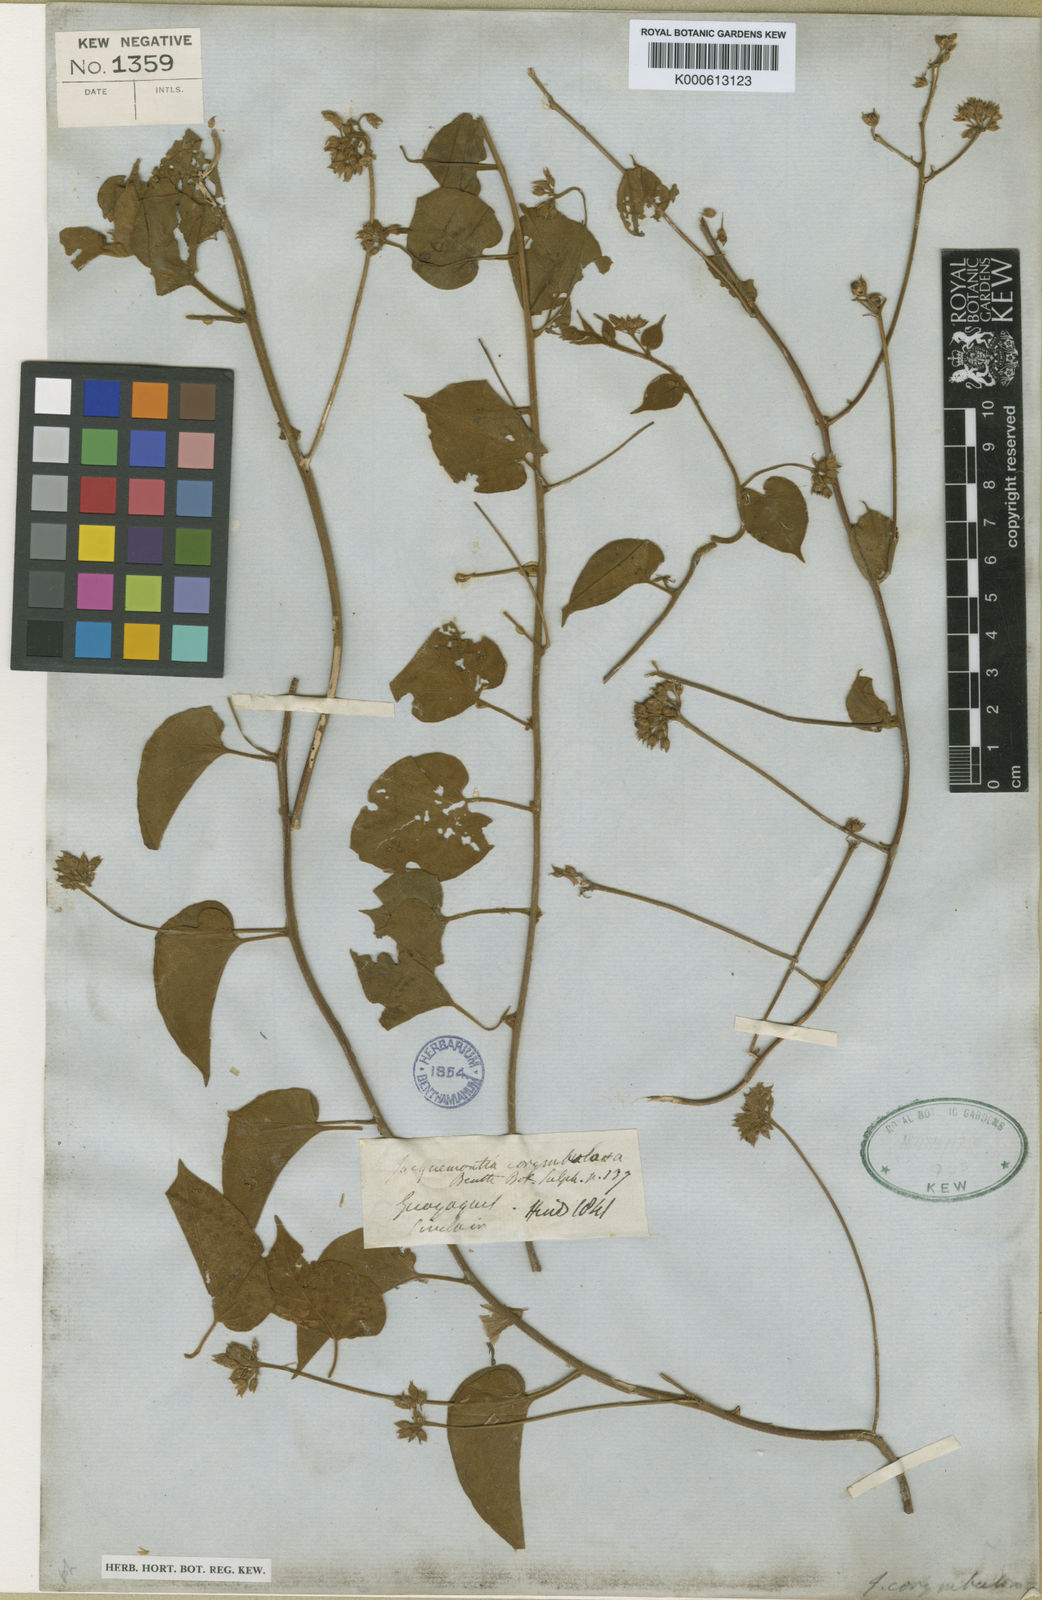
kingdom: Plantae
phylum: Tracheophyta
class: Magnoliopsida
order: Solanales
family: Convolvulaceae
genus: Jacquemontia
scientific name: Jacquemontia corymbulosa
